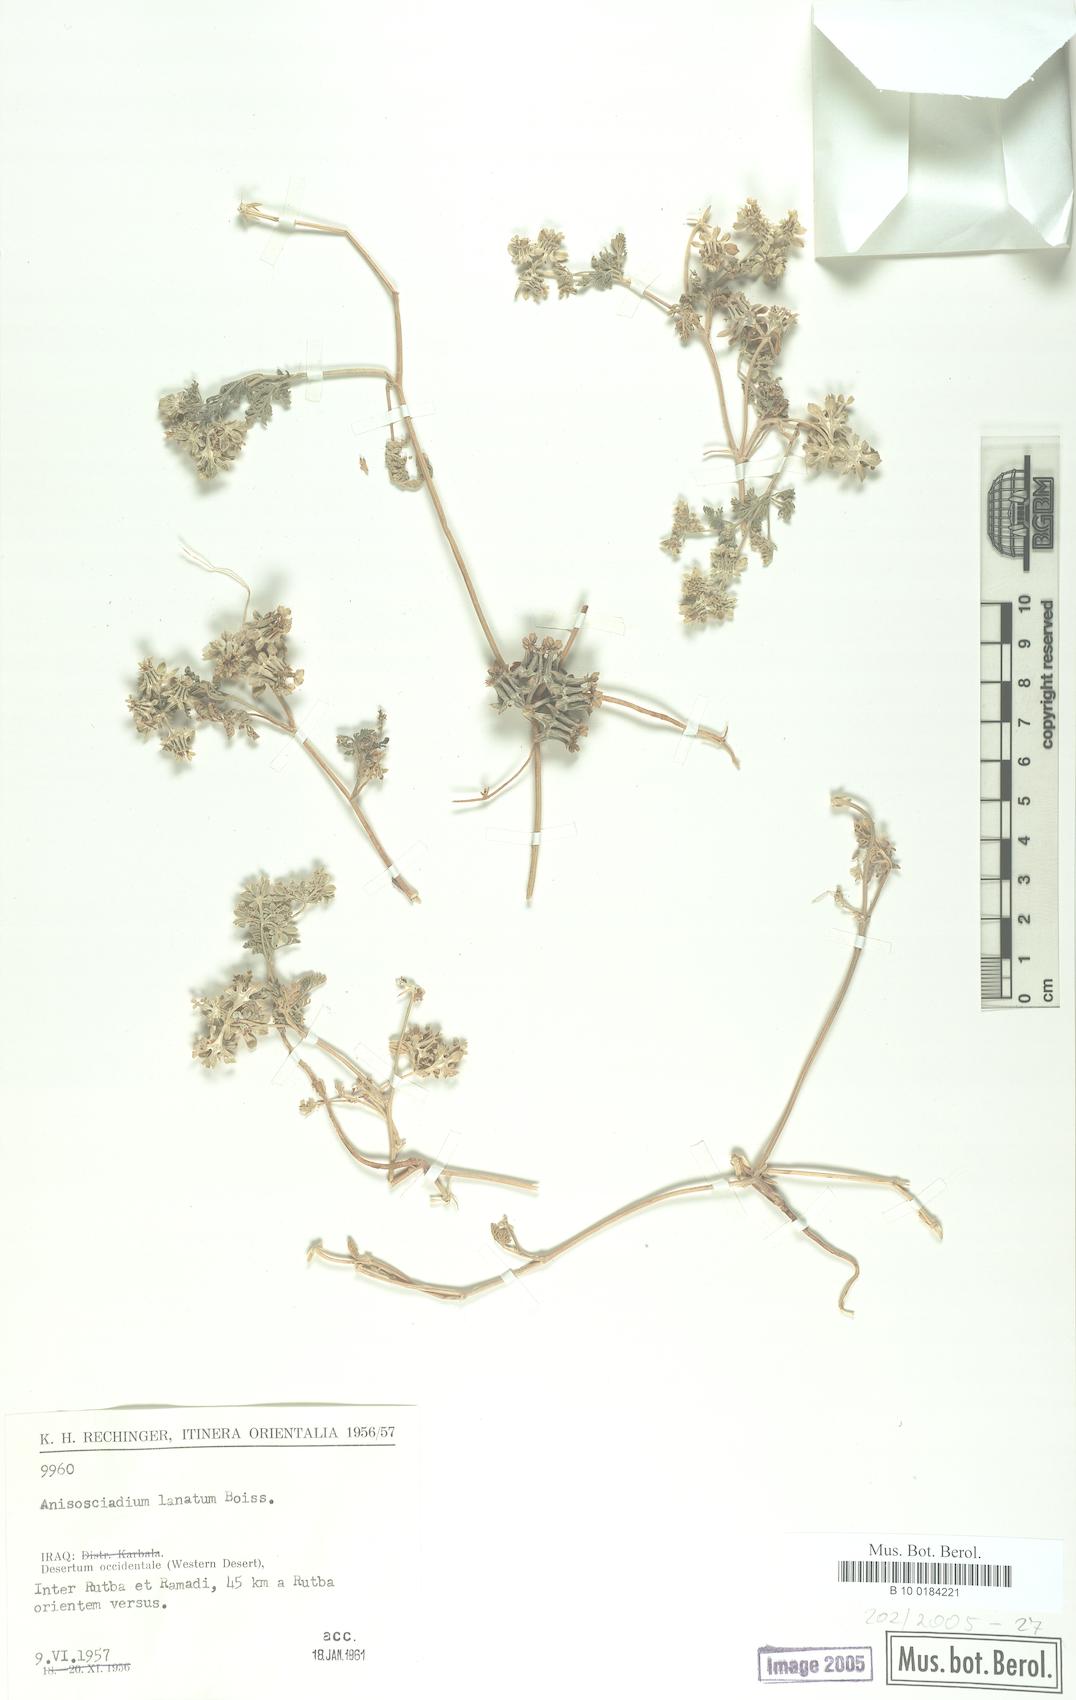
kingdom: Plantae
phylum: Tracheophyta
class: Magnoliopsida
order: Apiales
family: Apiaceae
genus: Anisosciadium
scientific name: Anisosciadium lanatum
